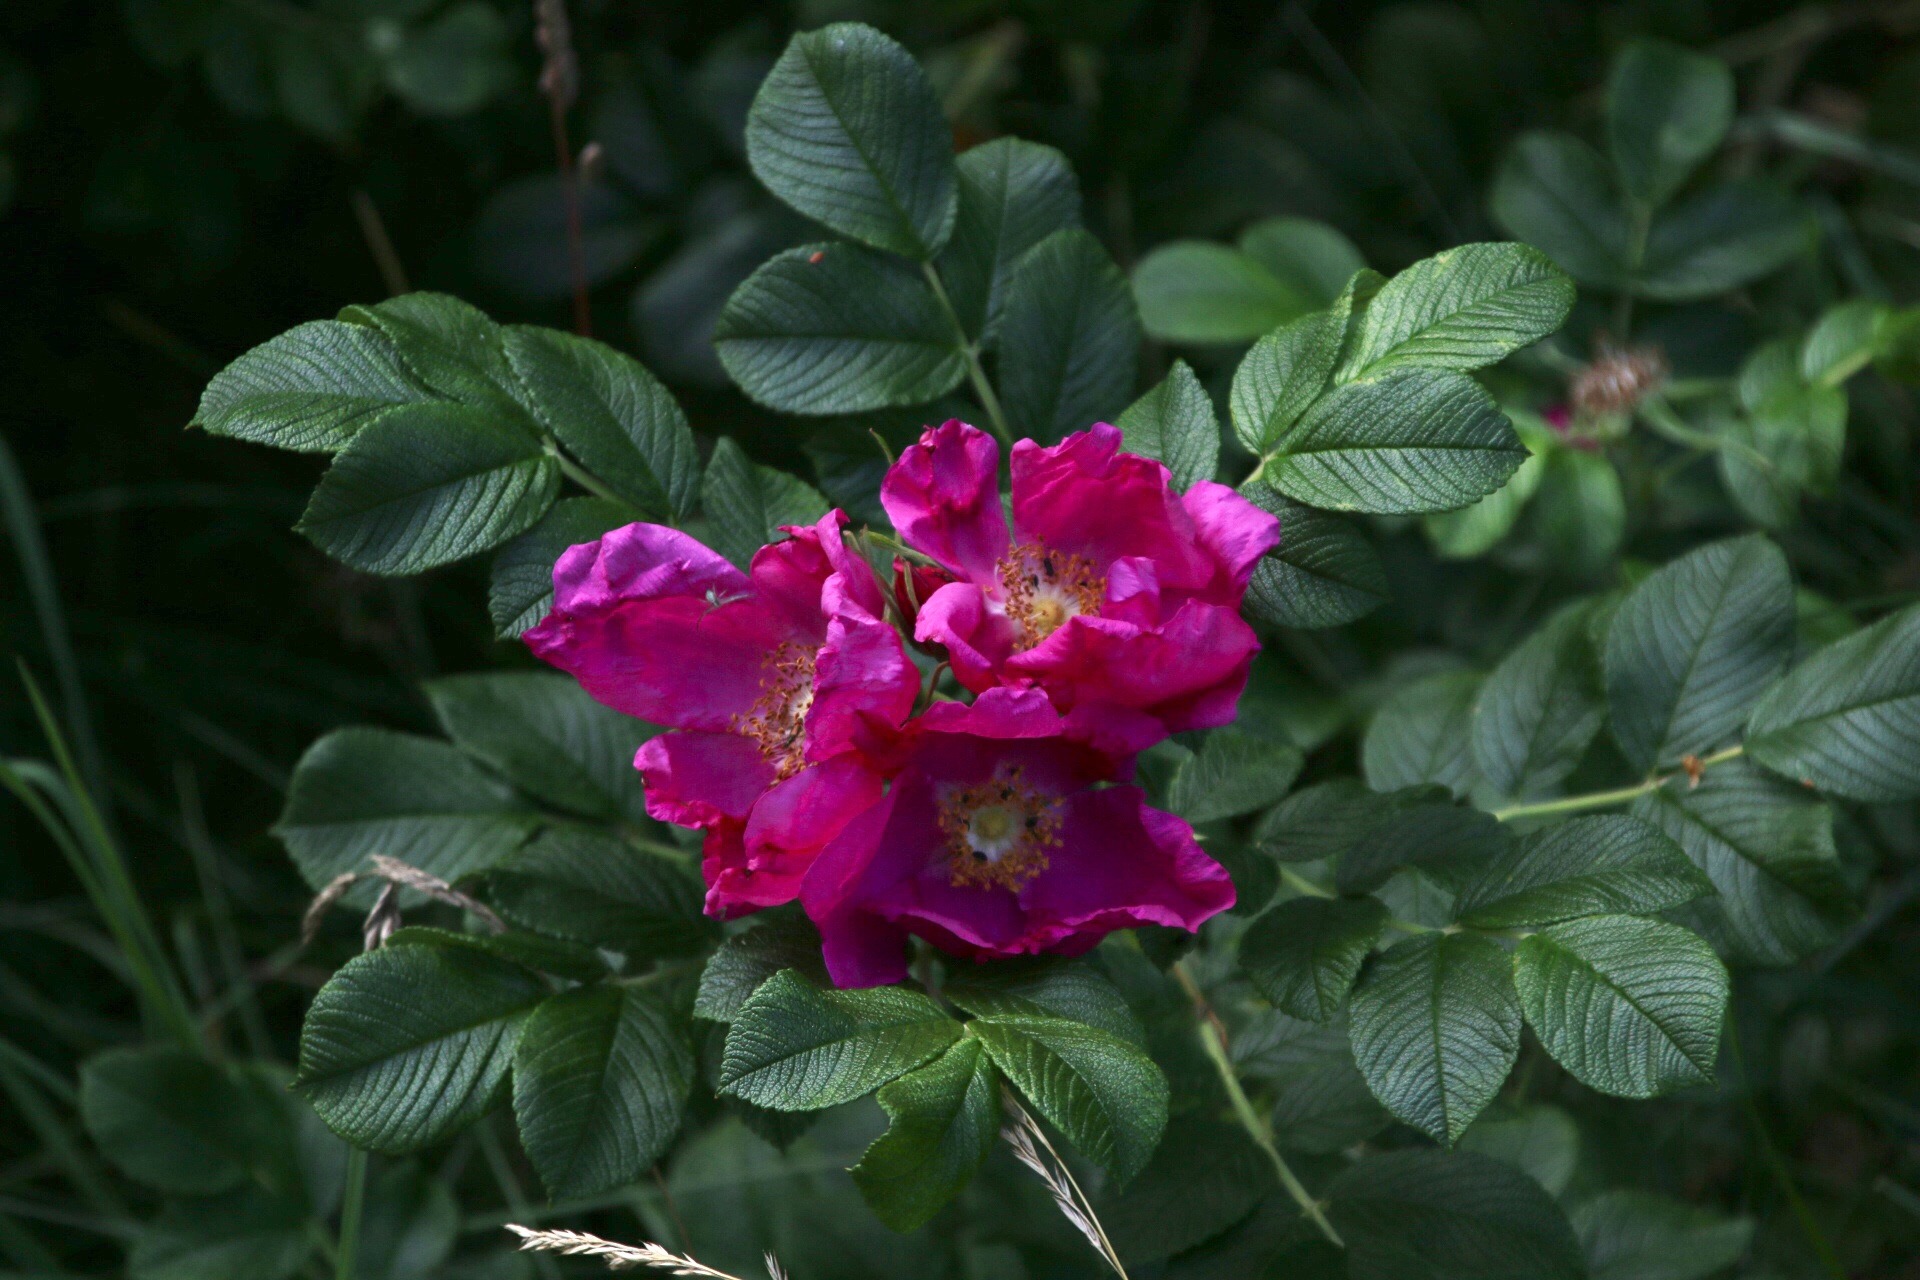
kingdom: Plantae
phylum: Tracheophyta
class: Magnoliopsida
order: Rosales
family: Rosaceae
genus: Rosa
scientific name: Rosa rugosa
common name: Rynket rose
